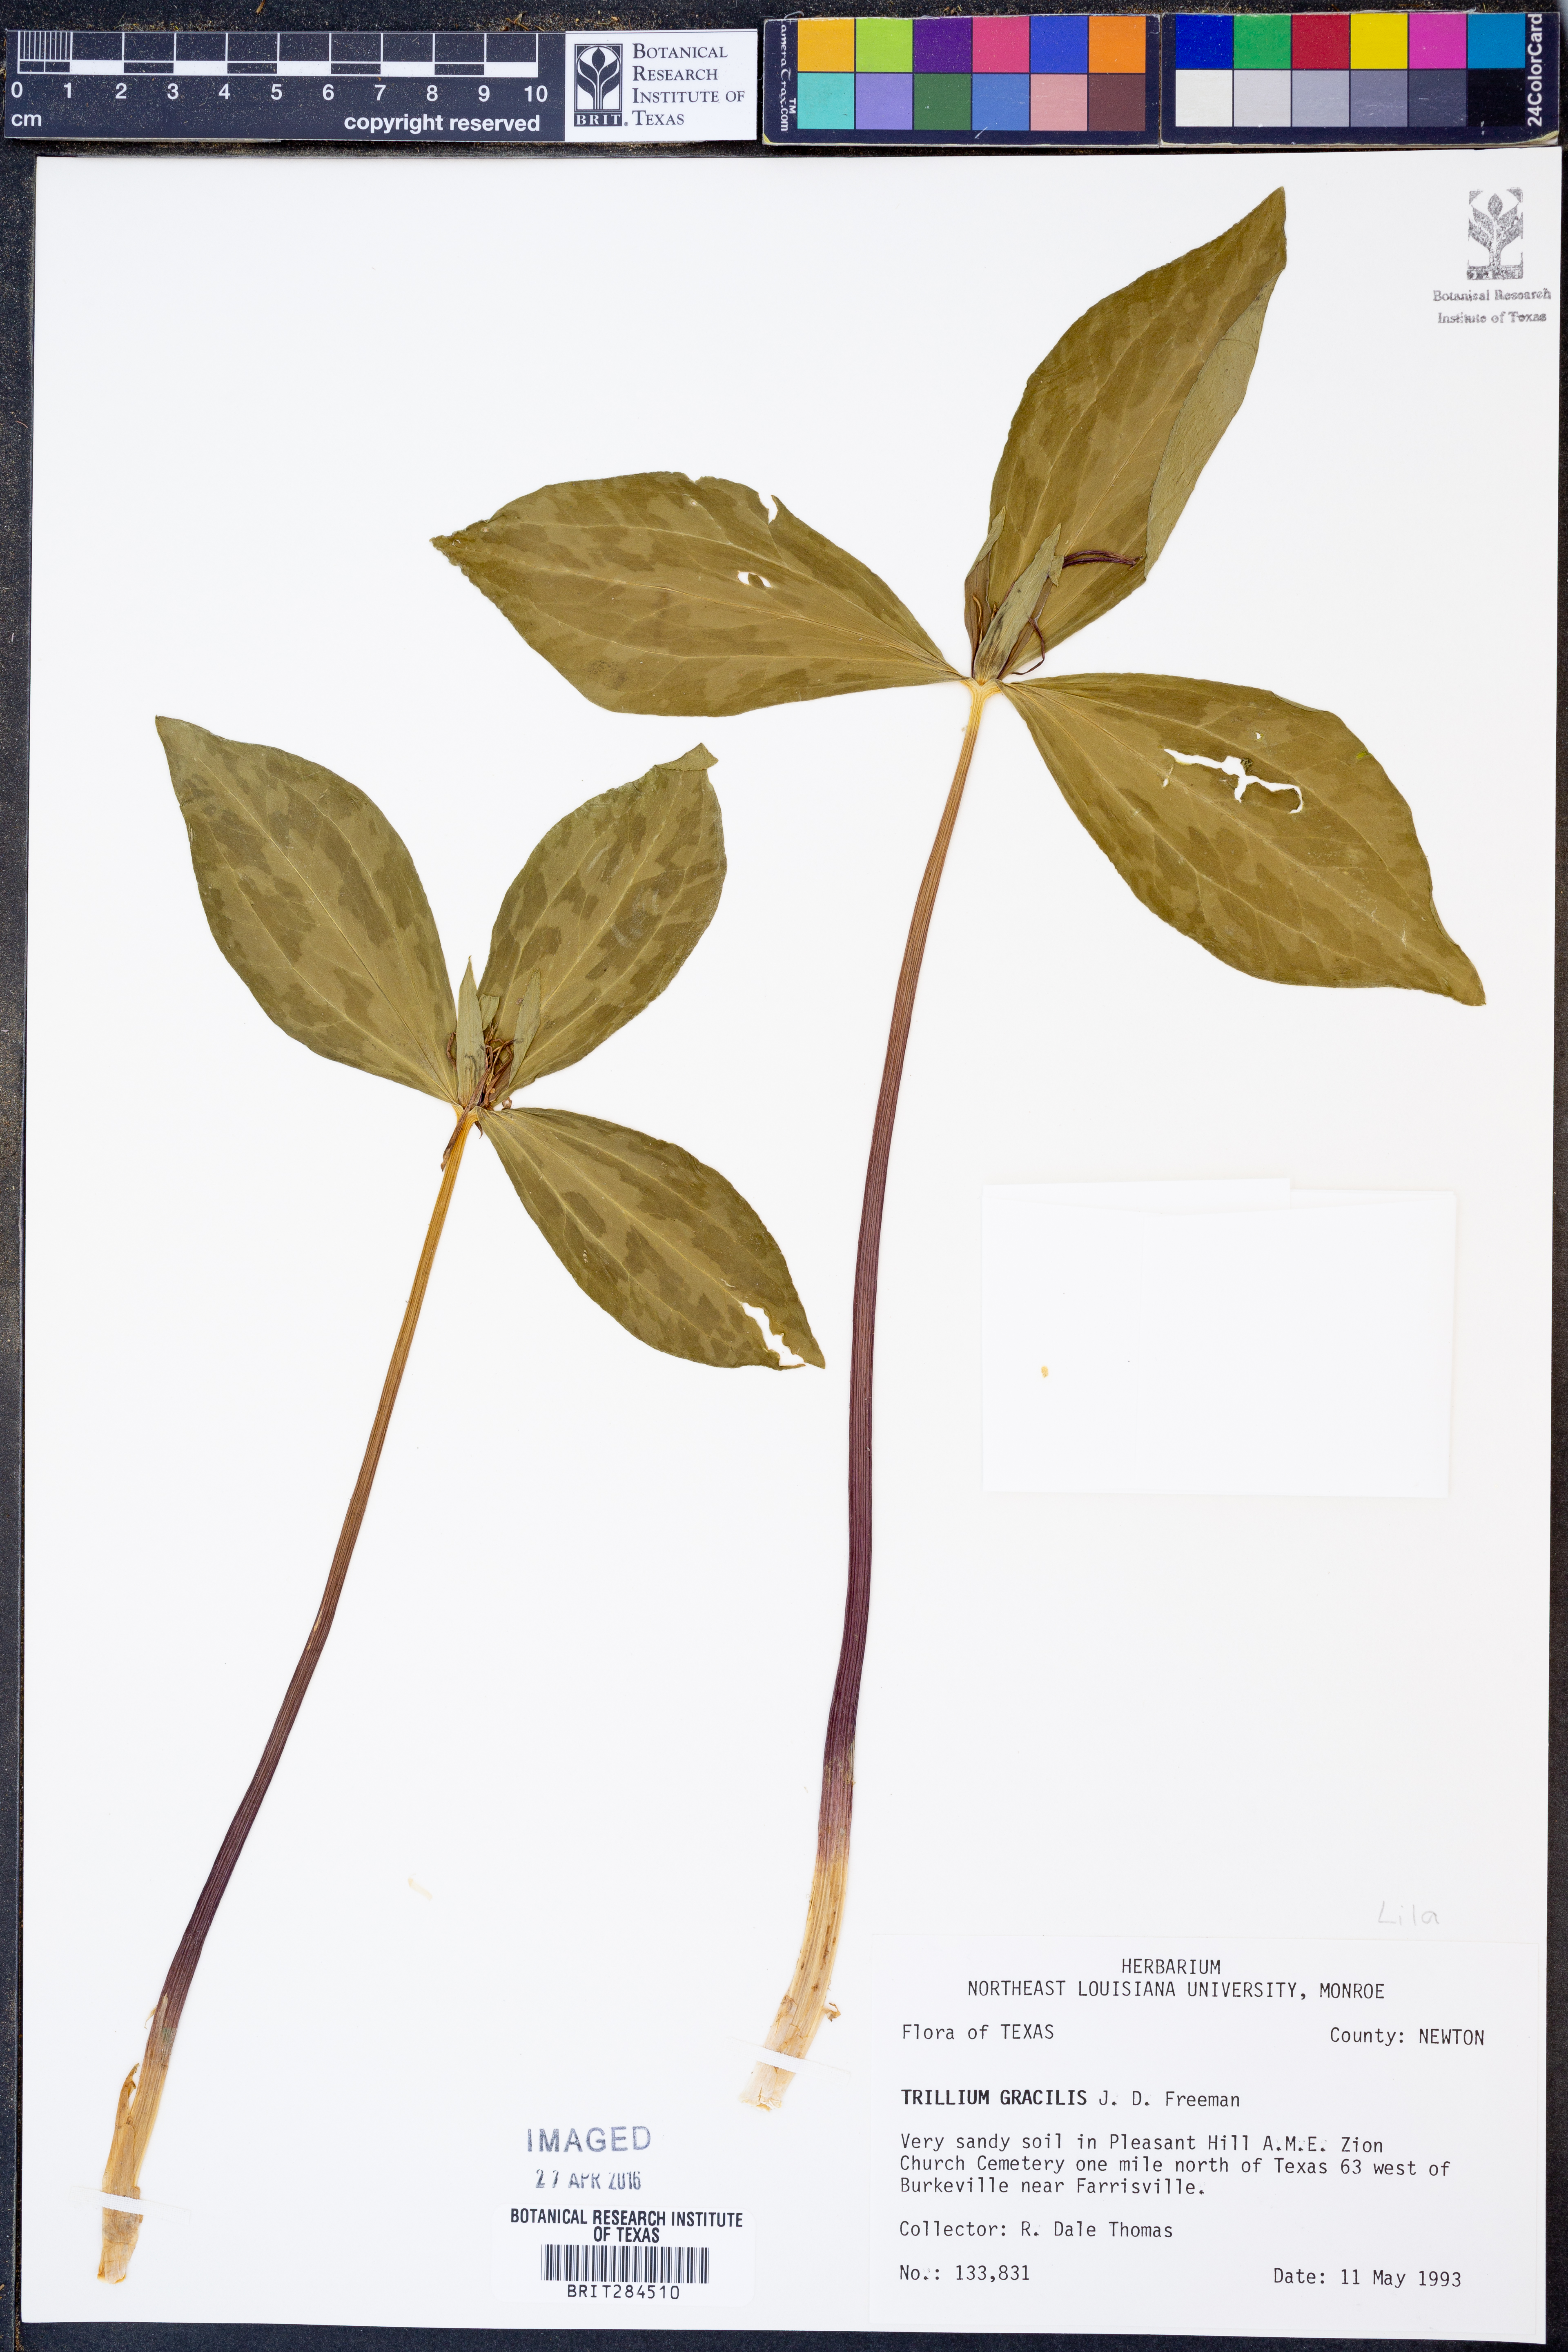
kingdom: Plantae
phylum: Tracheophyta
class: Liliopsida
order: Liliales
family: Melanthiaceae
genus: Trillium
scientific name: Trillium gracile
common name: Graceful trillium
